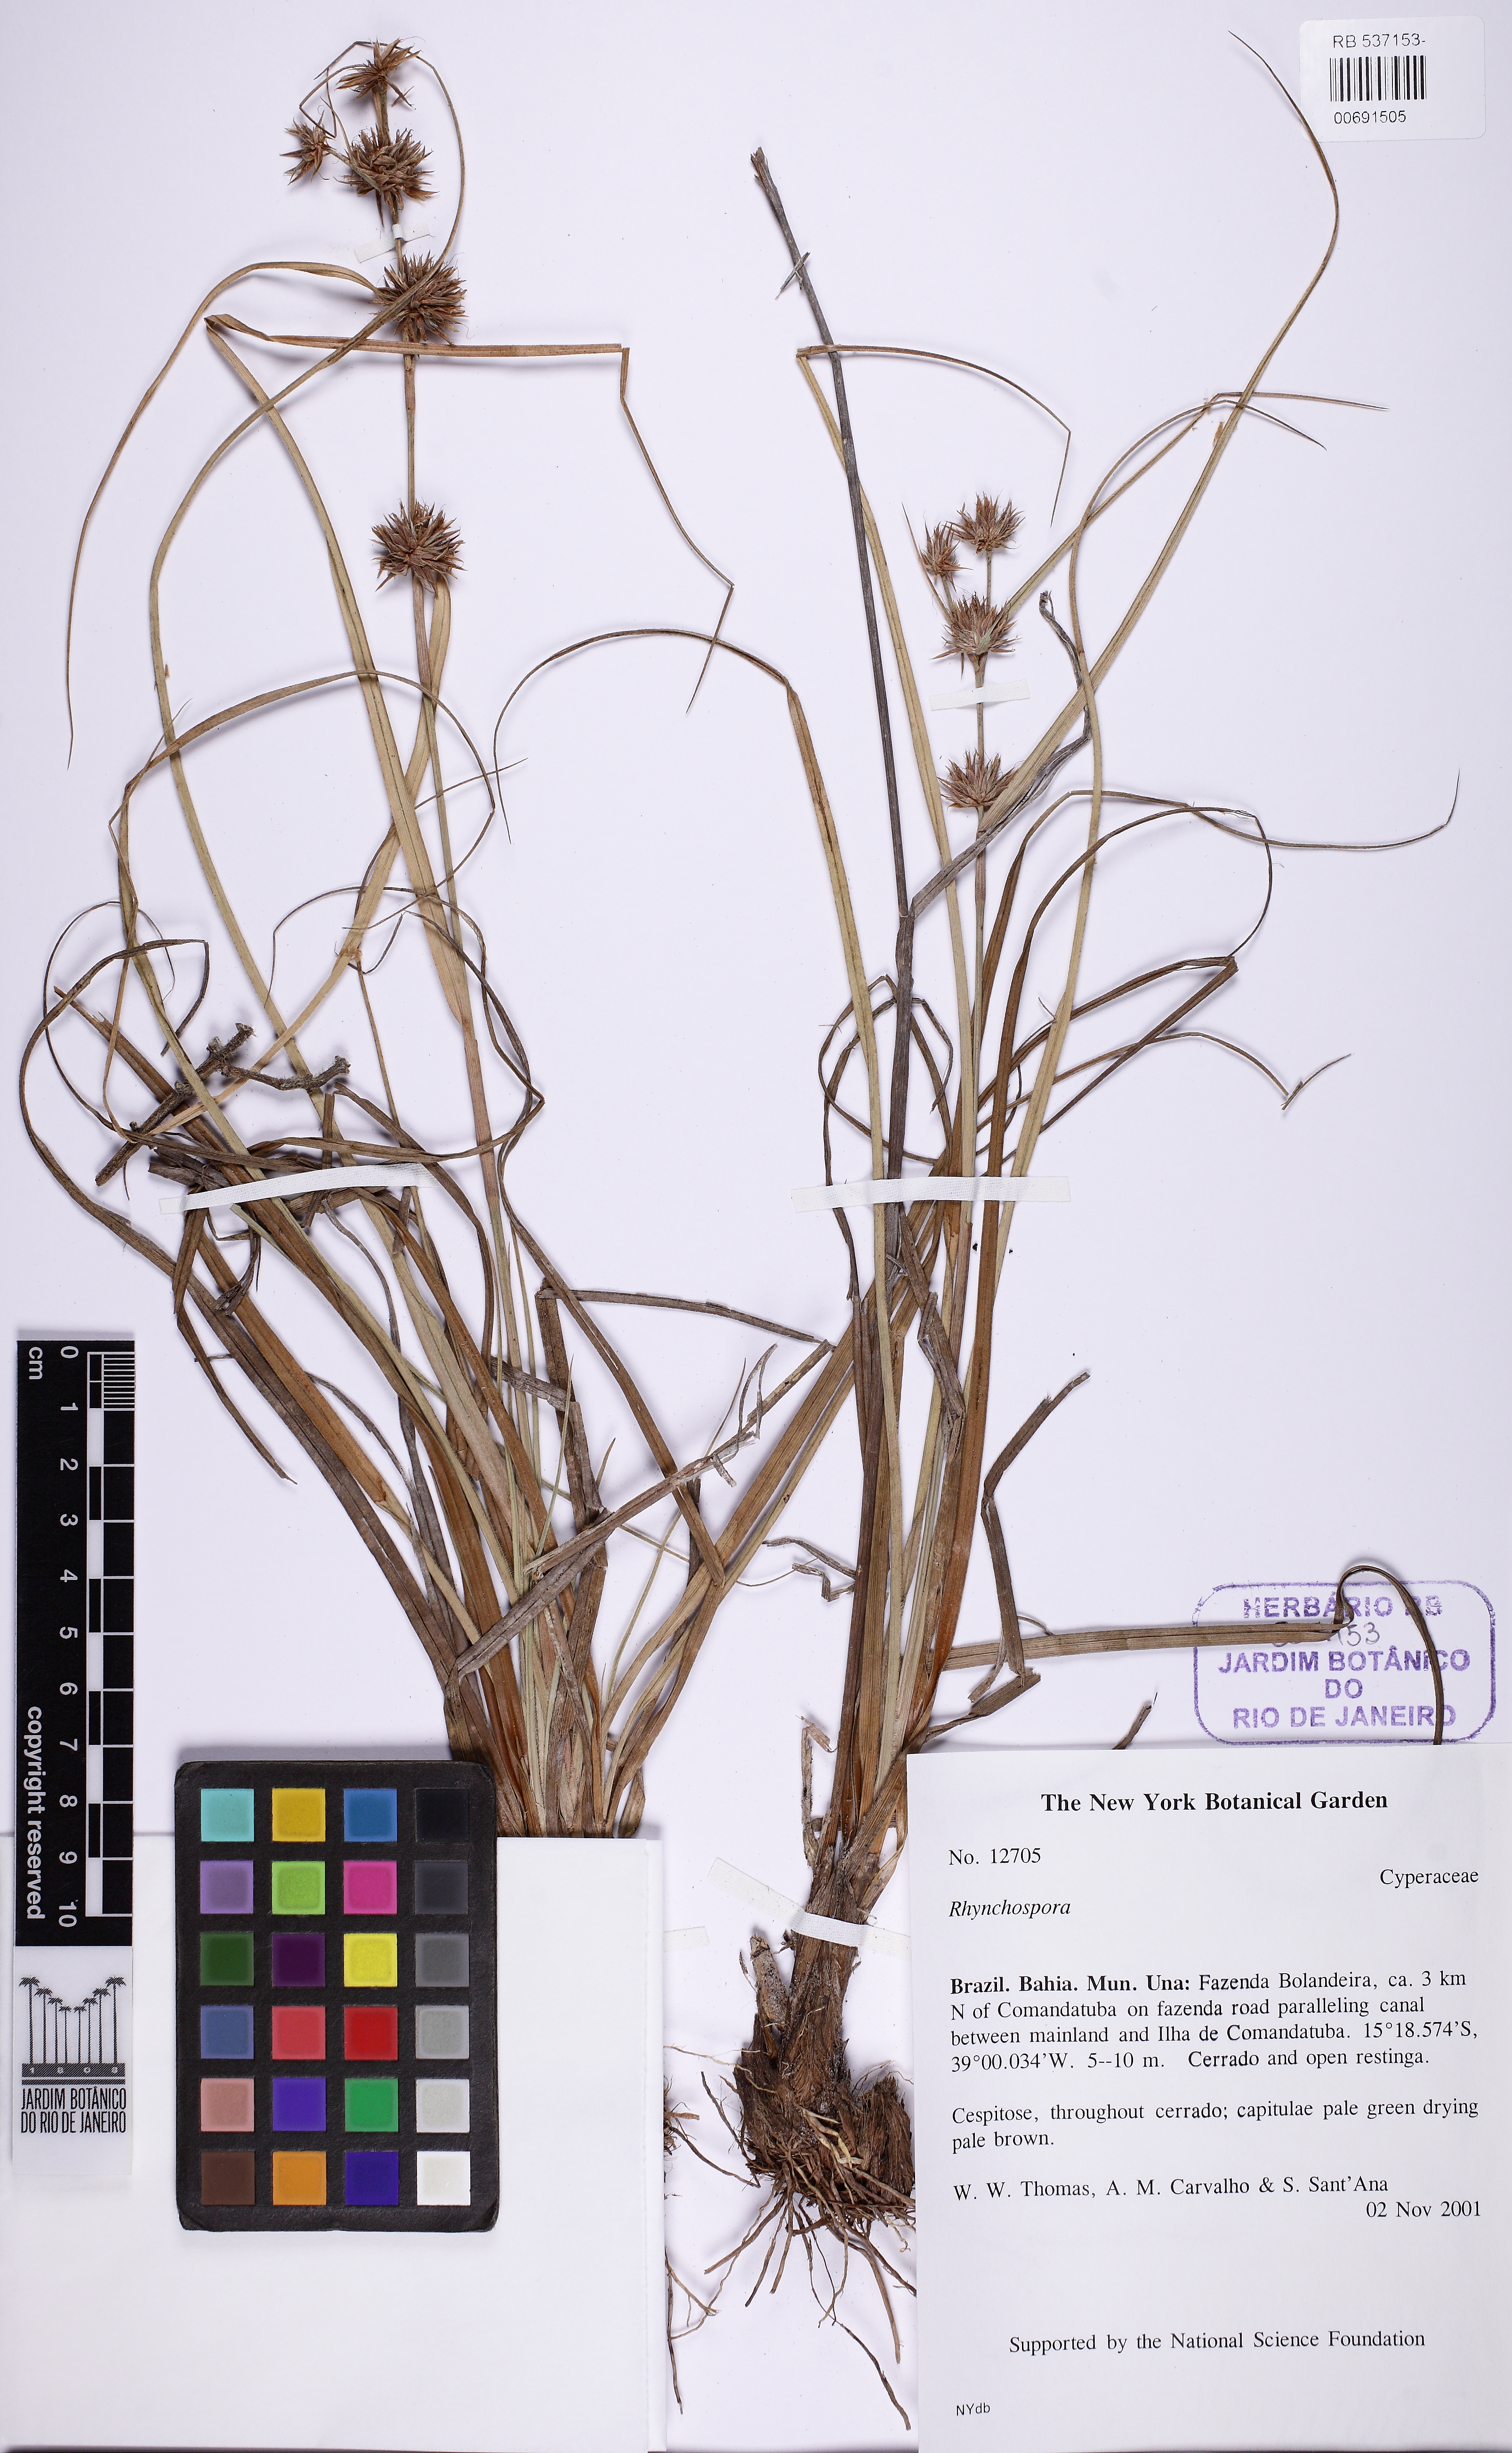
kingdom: Plantae
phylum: Tracheophyta
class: Liliopsida
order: Poales
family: Cyperaceae
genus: Rhynchospora
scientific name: Rhynchospora
